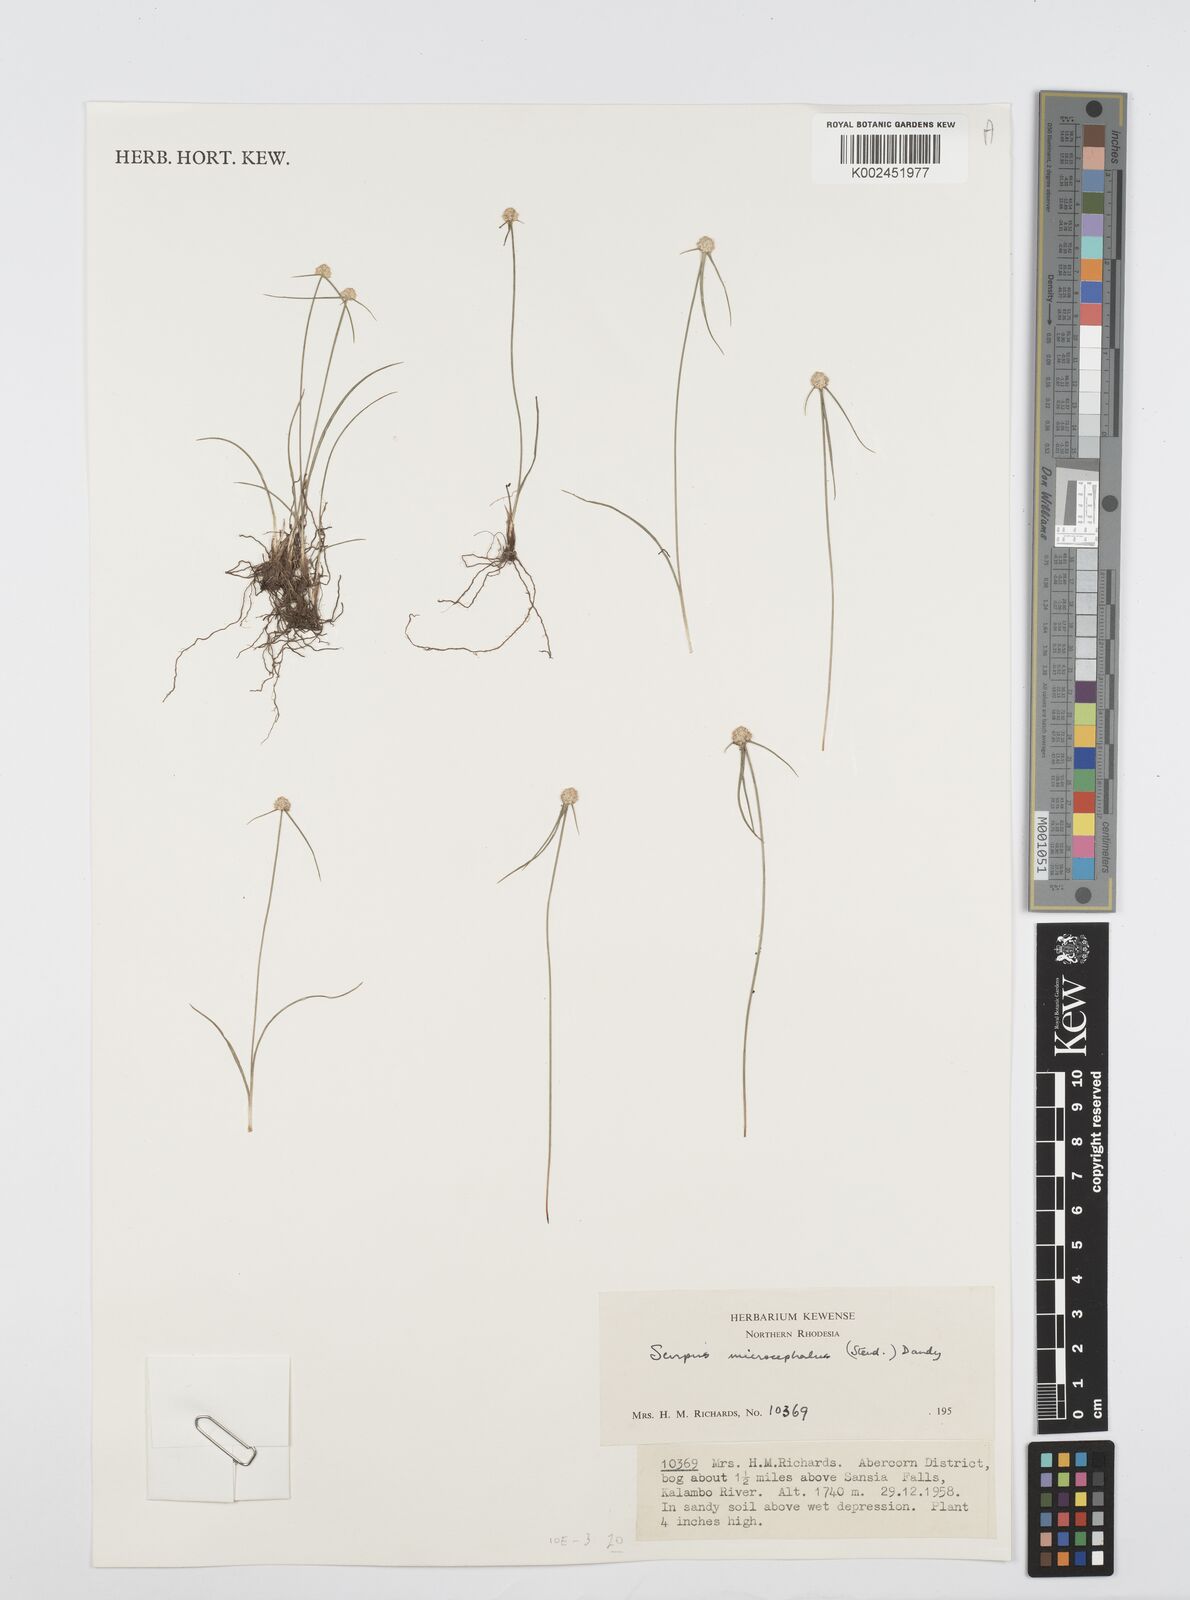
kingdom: Plantae
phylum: Tracheophyta
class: Liliopsida
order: Poales
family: Cyperaceae
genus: Cyperus
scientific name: Cyperus microcephalus
